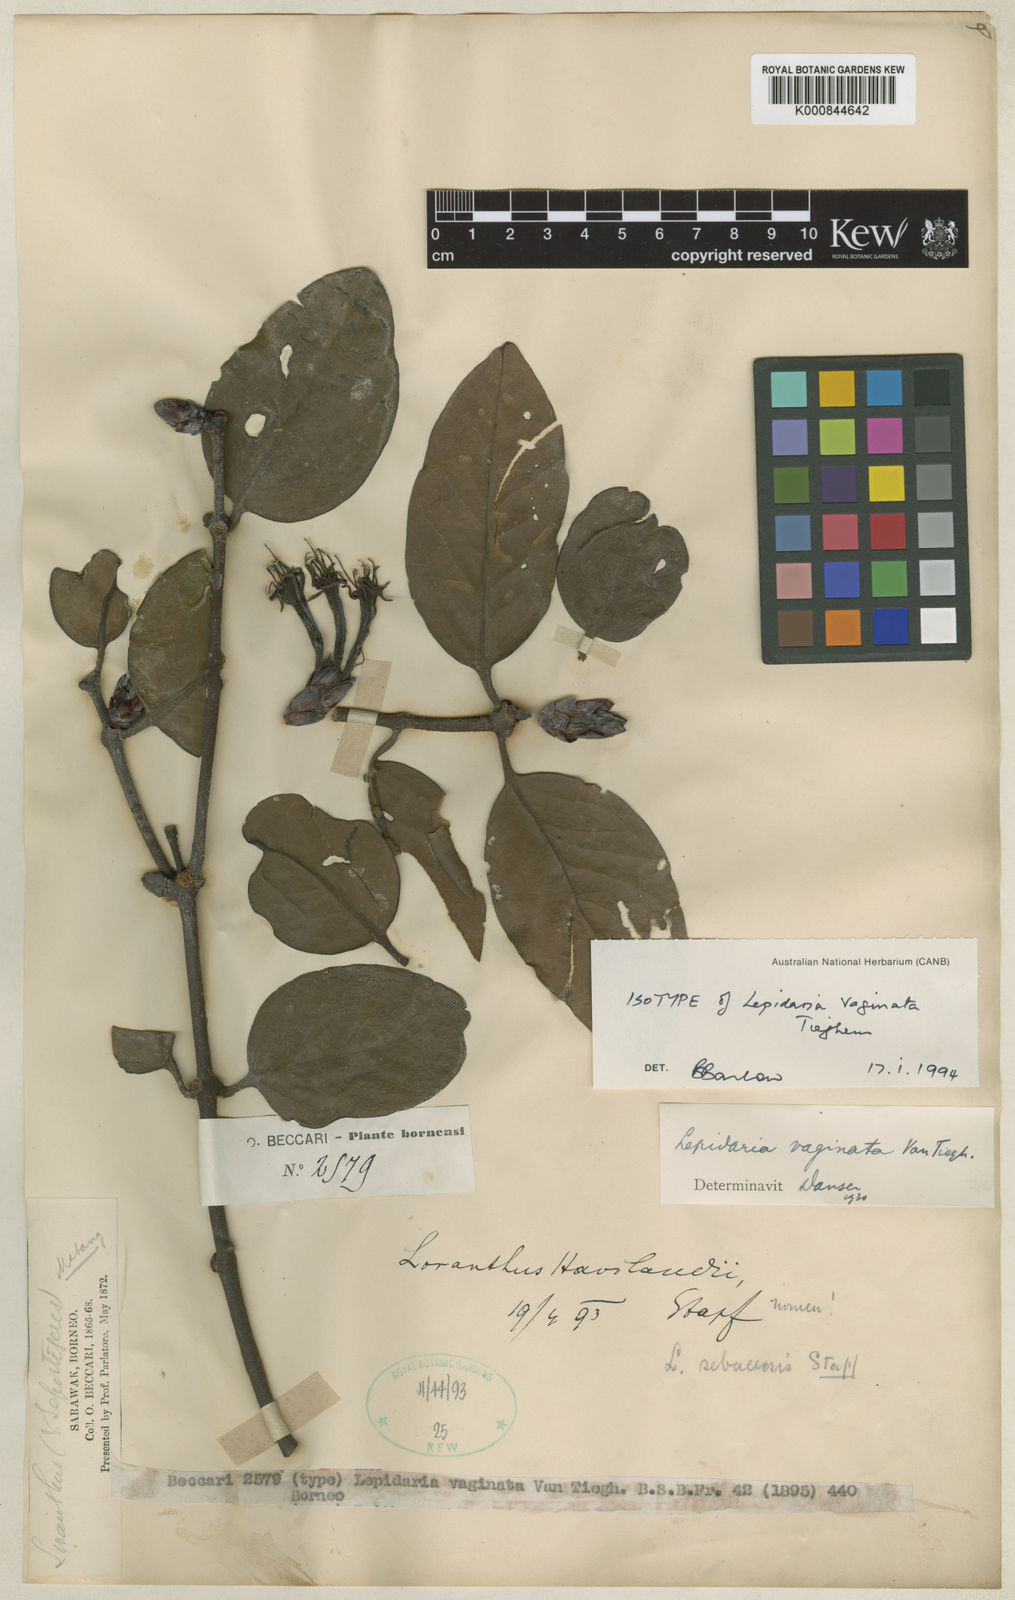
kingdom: Plantae
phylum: Tracheophyta
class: Magnoliopsida
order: Santalales
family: Loranthaceae
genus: Lepidaria
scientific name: Lepidaria vaginata
